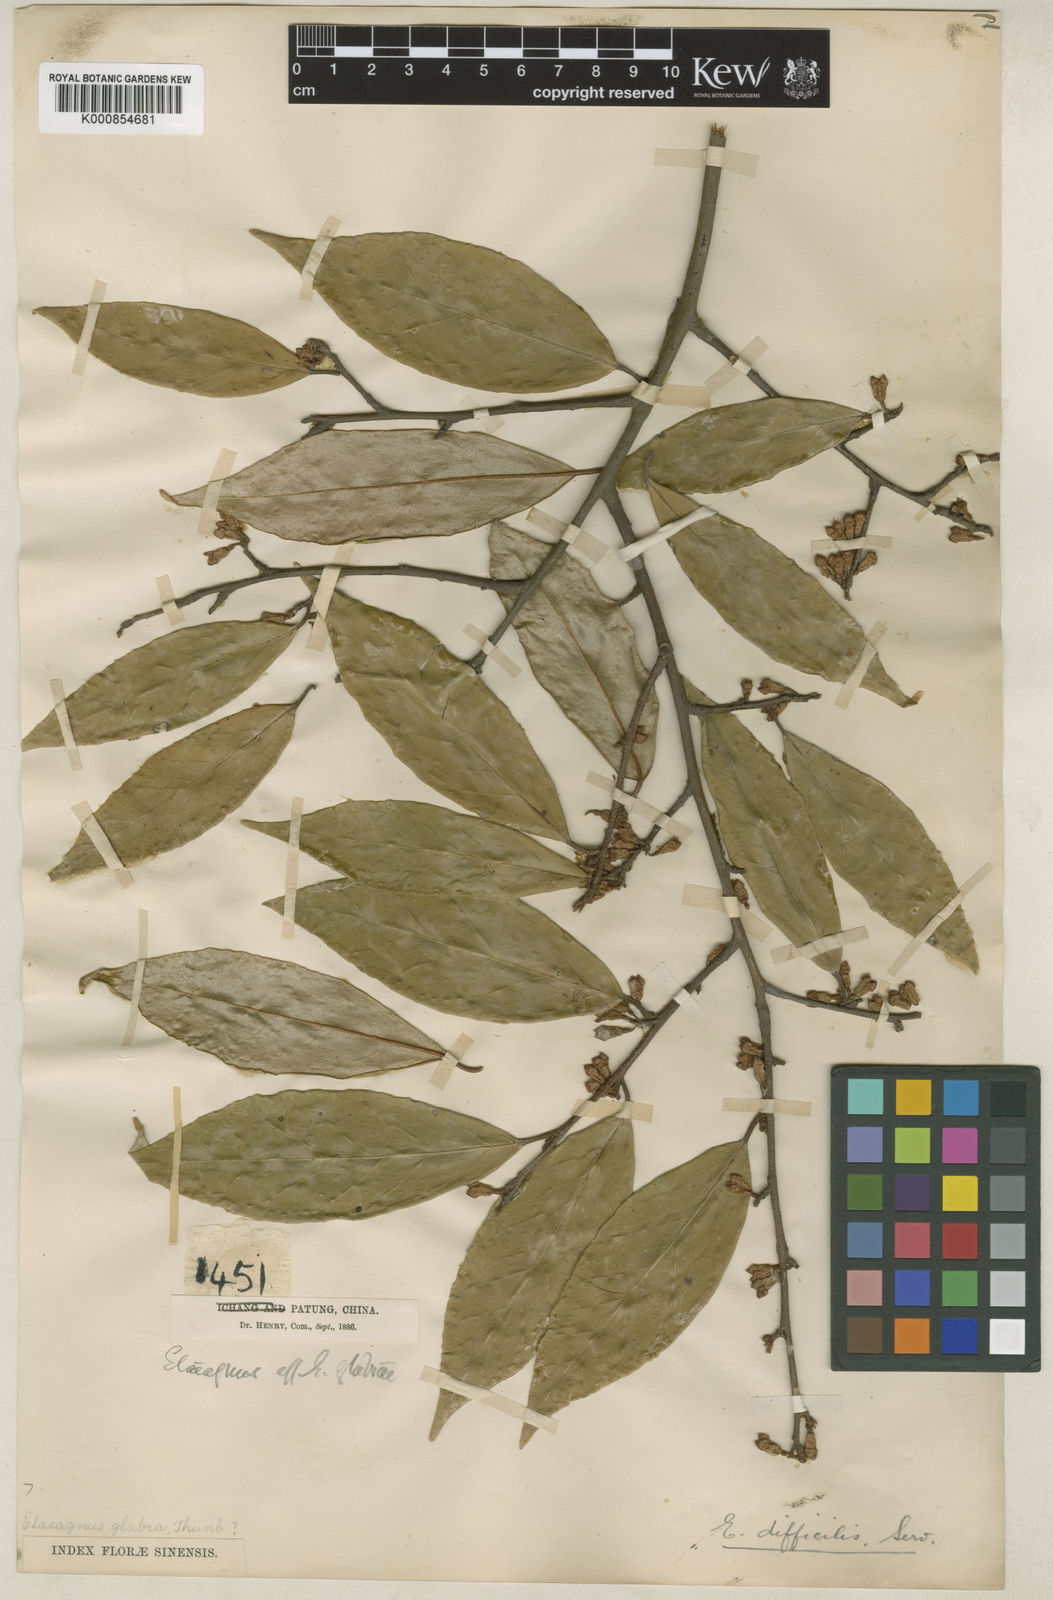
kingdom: Plantae
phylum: Tracheophyta
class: Magnoliopsida
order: Rosales
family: Elaeagnaceae
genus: Elaeagnus
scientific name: Elaeagnus difficilis
